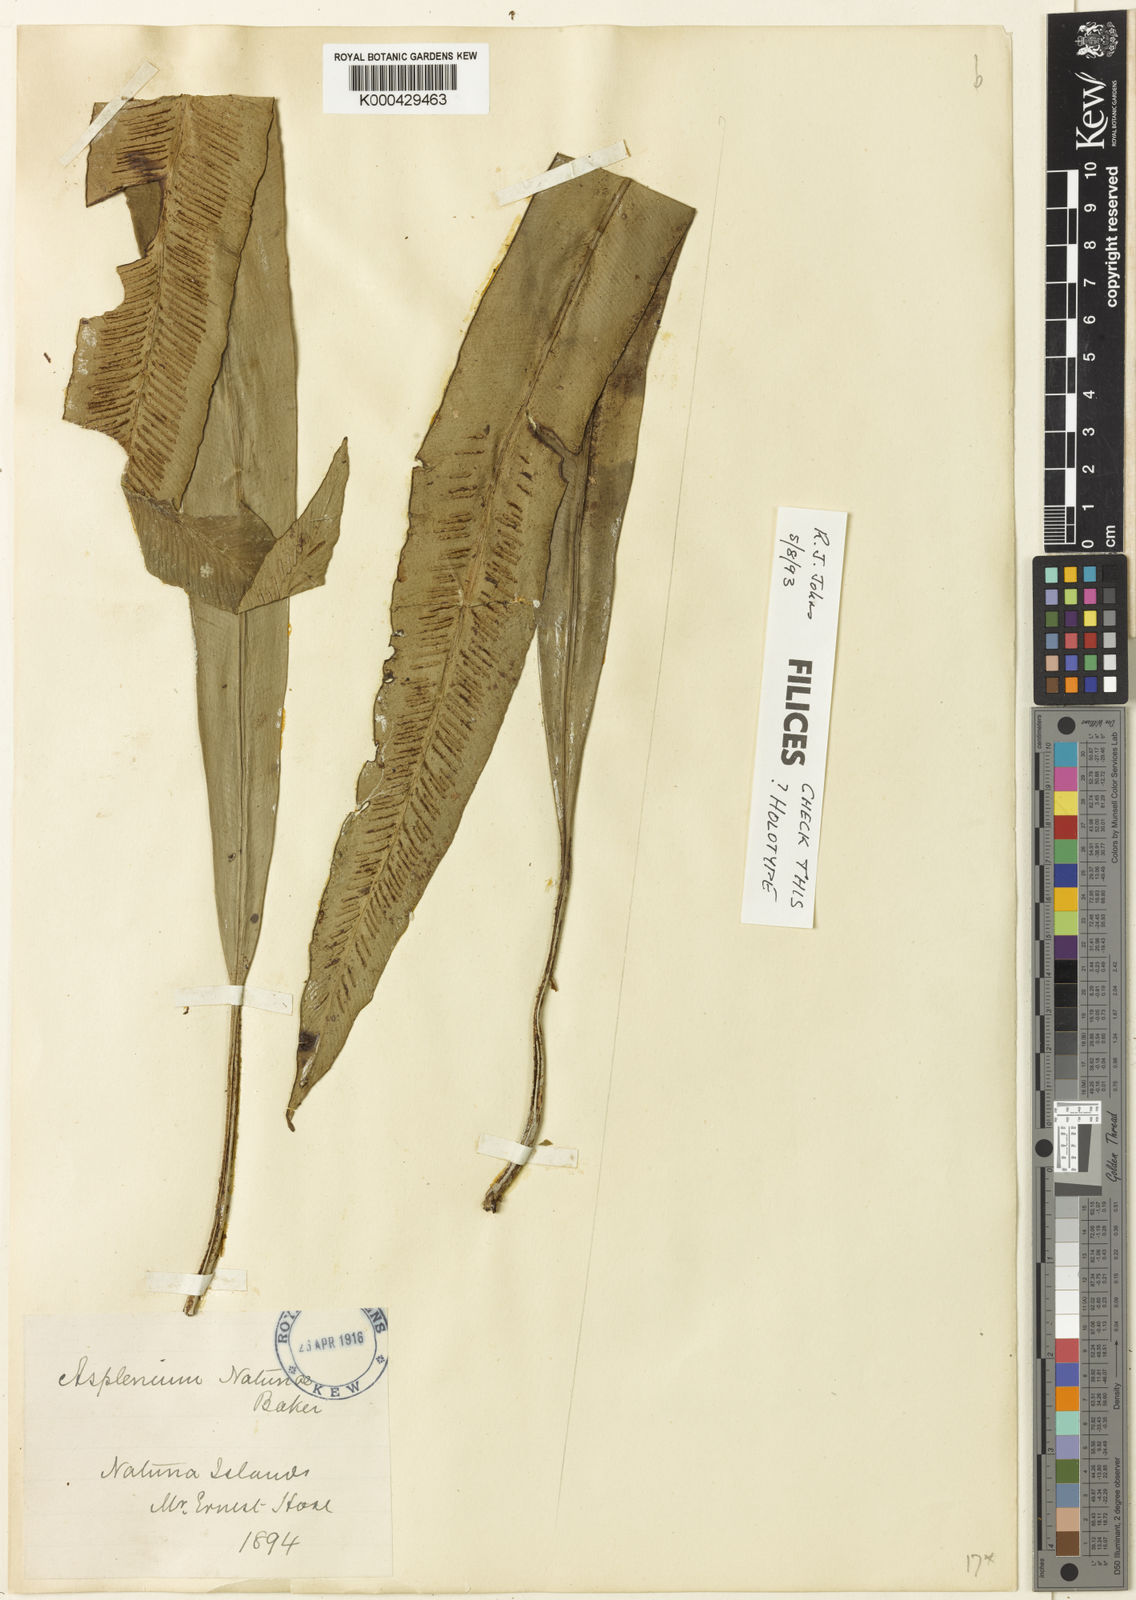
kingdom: Plantae
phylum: Tracheophyta
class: Polypodiopsida
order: Polypodiales
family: Aspleniaceae
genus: Asplenium
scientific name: Asplenium vittaeforme
